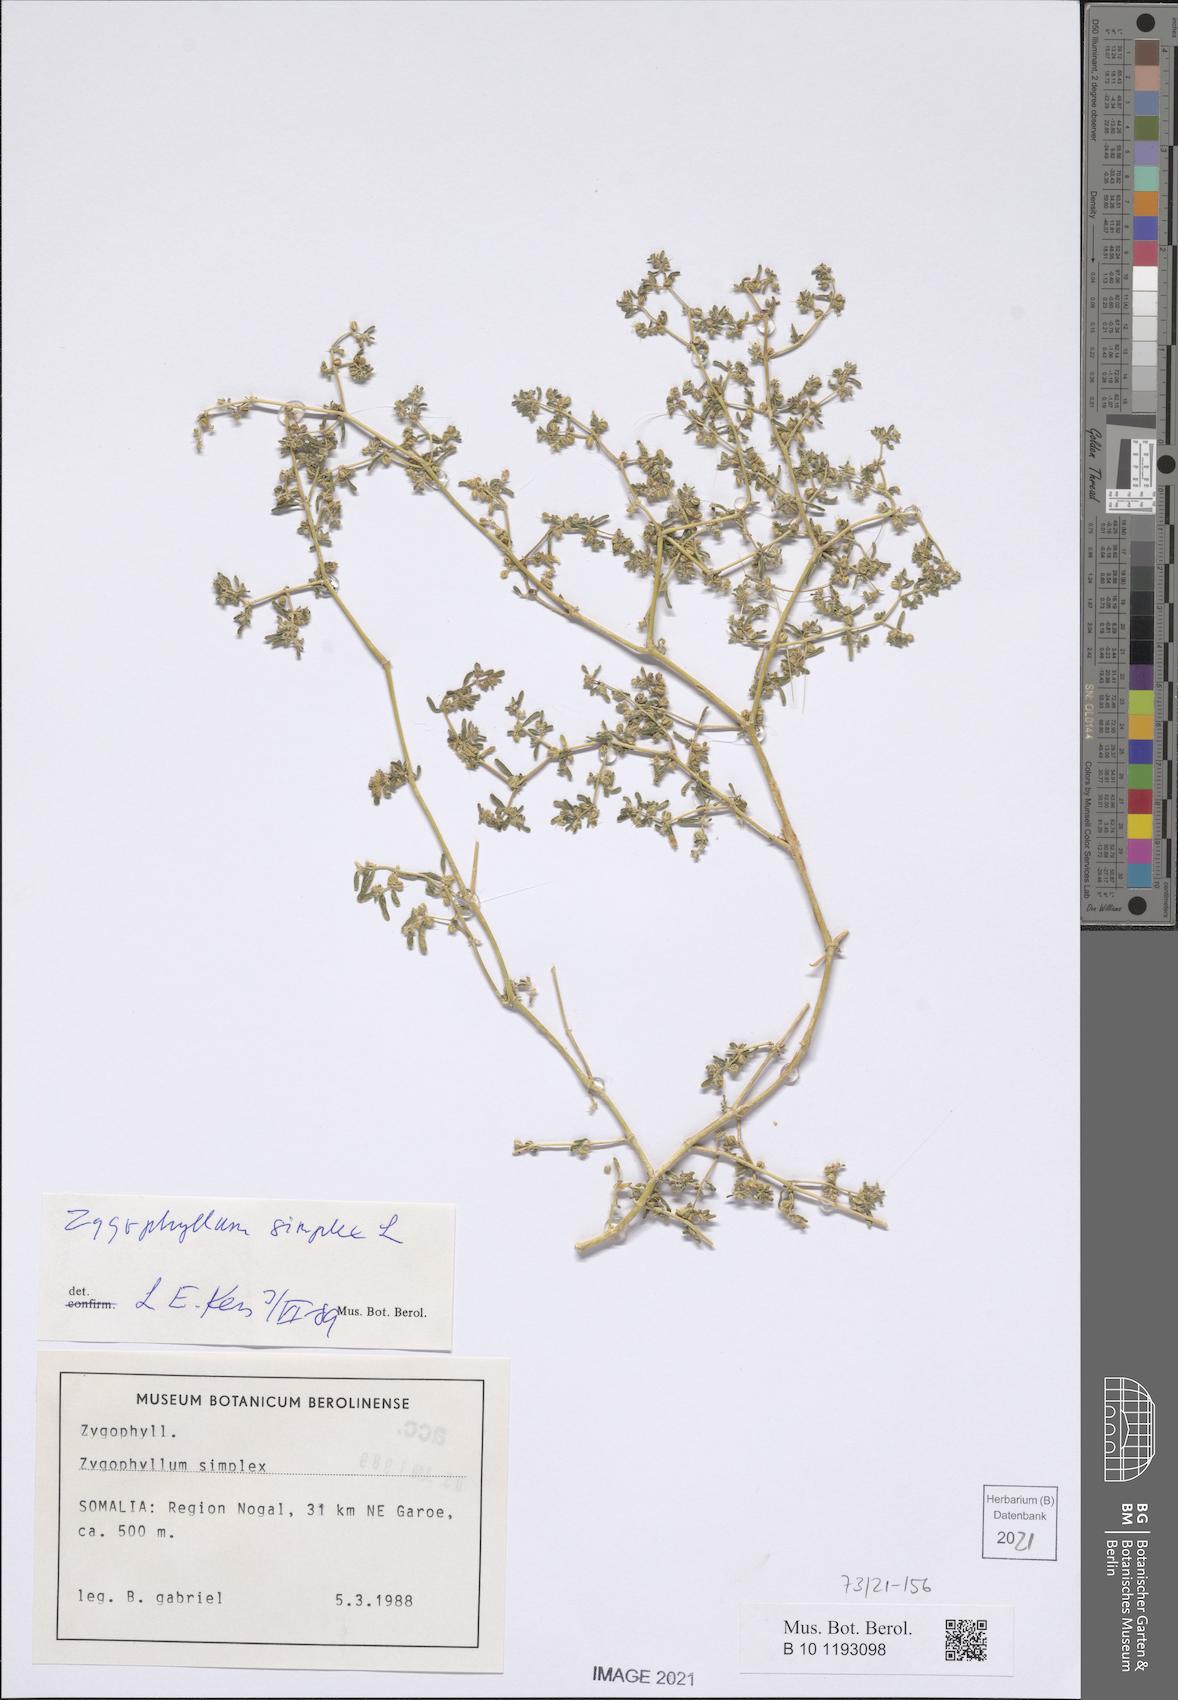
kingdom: Plantae
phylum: Tracheophyta
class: Magnoliopsida
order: Zygophyllales
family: Zygophyllaceae
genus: Tetraena
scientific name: Tetraena simplex
